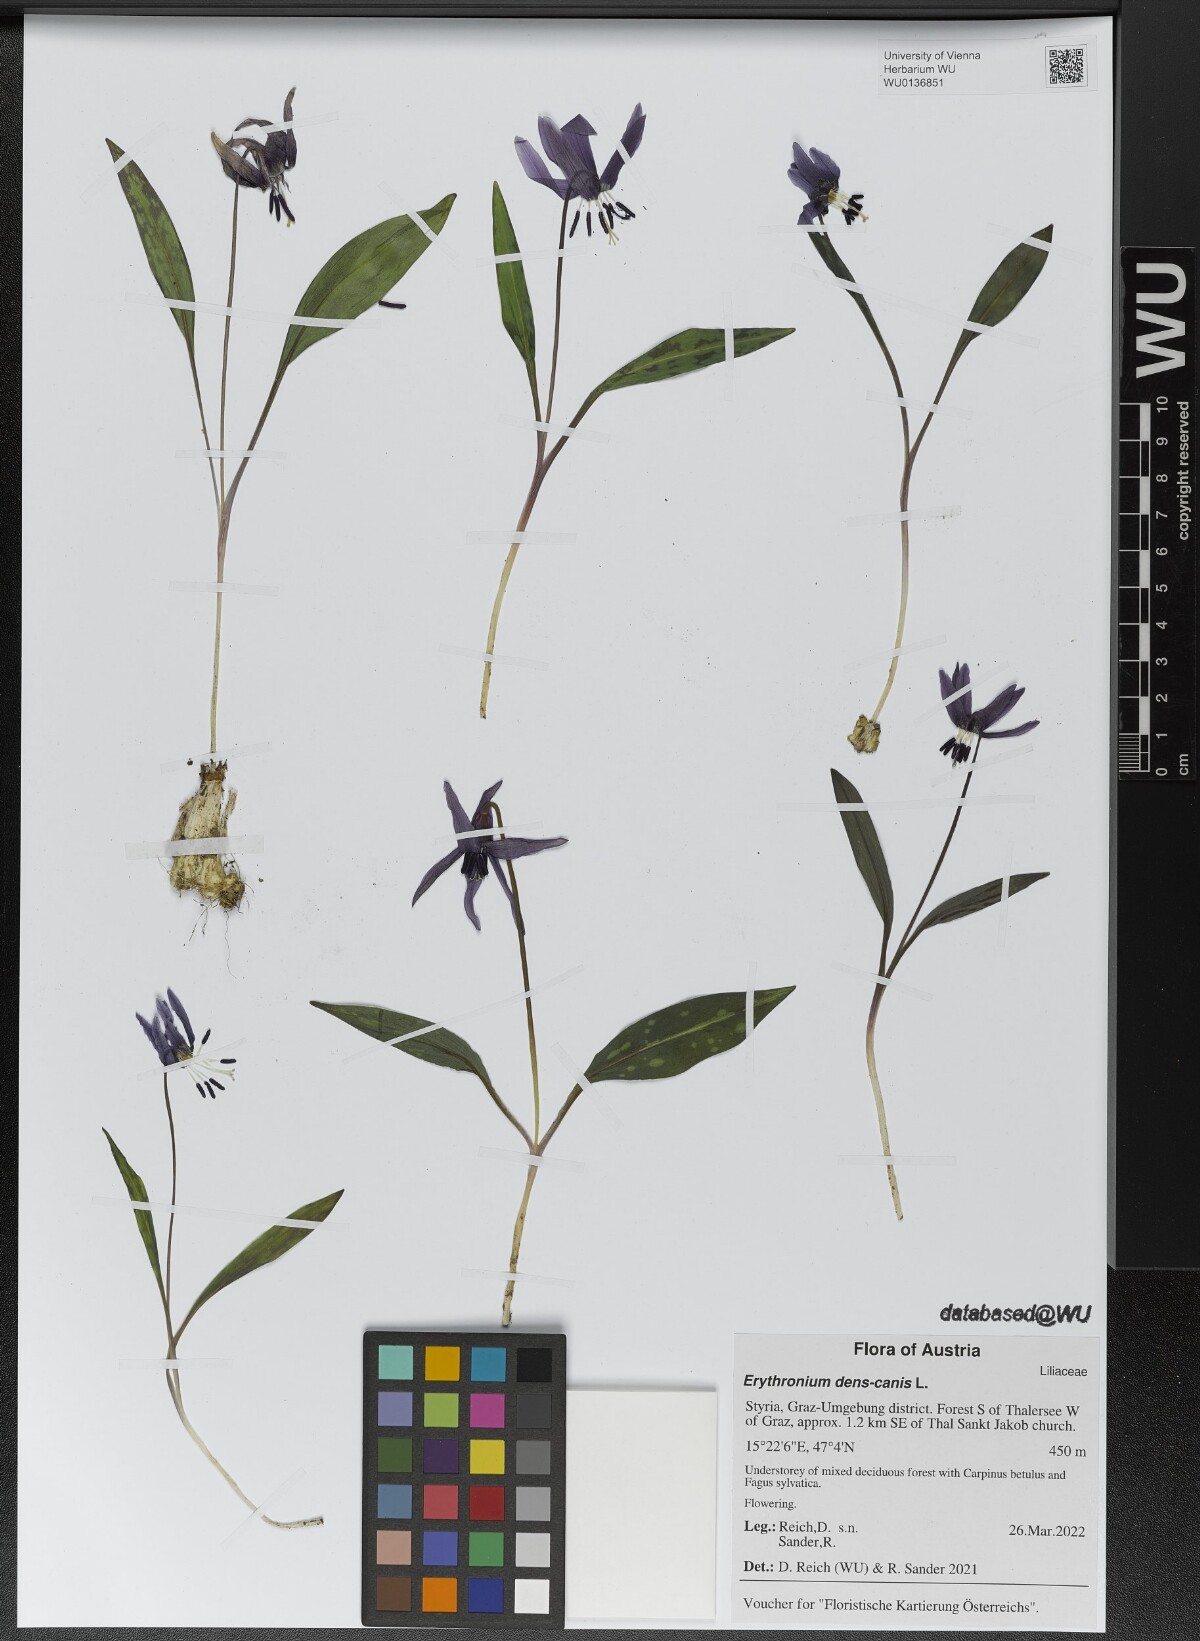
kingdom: Plantae
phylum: Tracheophyta
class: Liliopsida
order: Liliales
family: Liliaceae
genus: Erythronium
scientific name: Erythronium dens-canis
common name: Dog's-tooth-violet
